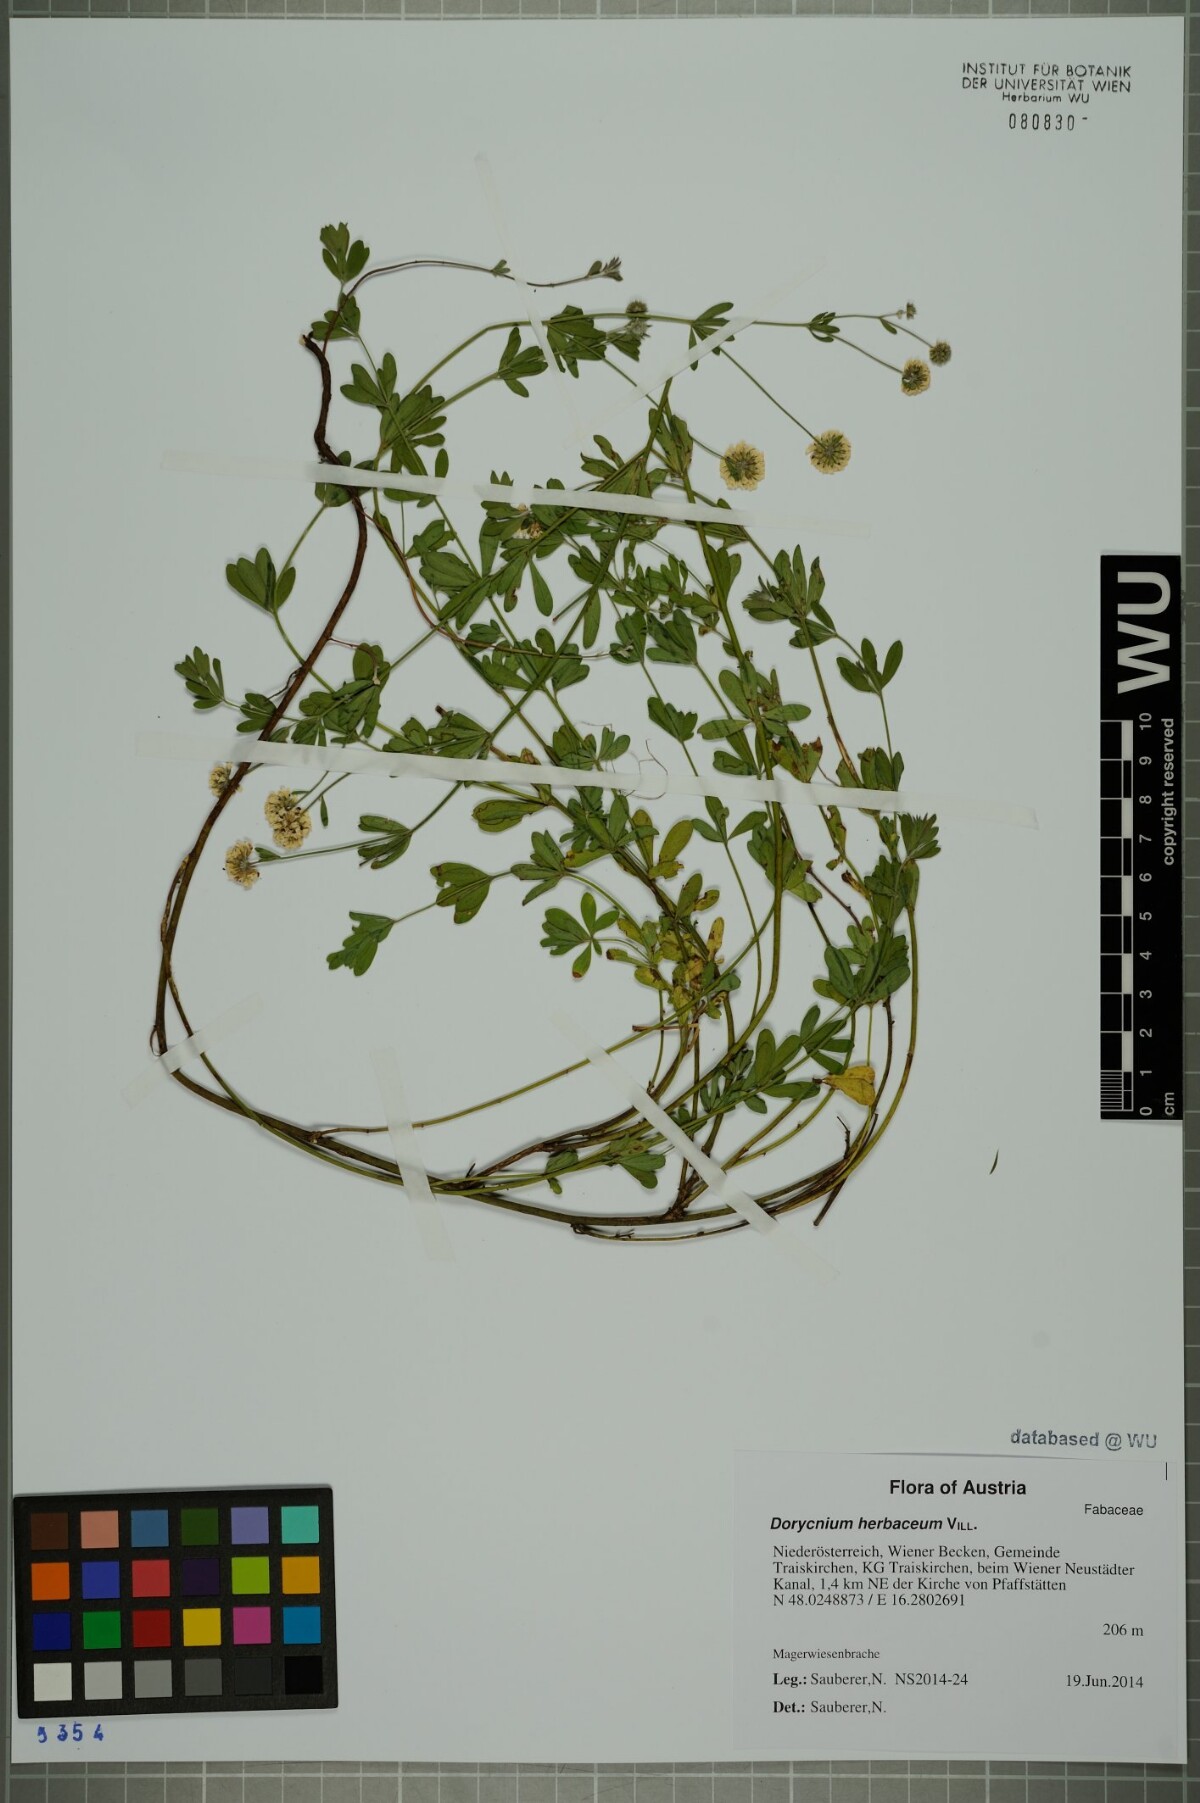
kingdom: Plantae
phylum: Tracheophyta
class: Magnoliopsida
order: Fabales
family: Fabaceae
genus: Lotus
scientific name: Lotus herbaceus
